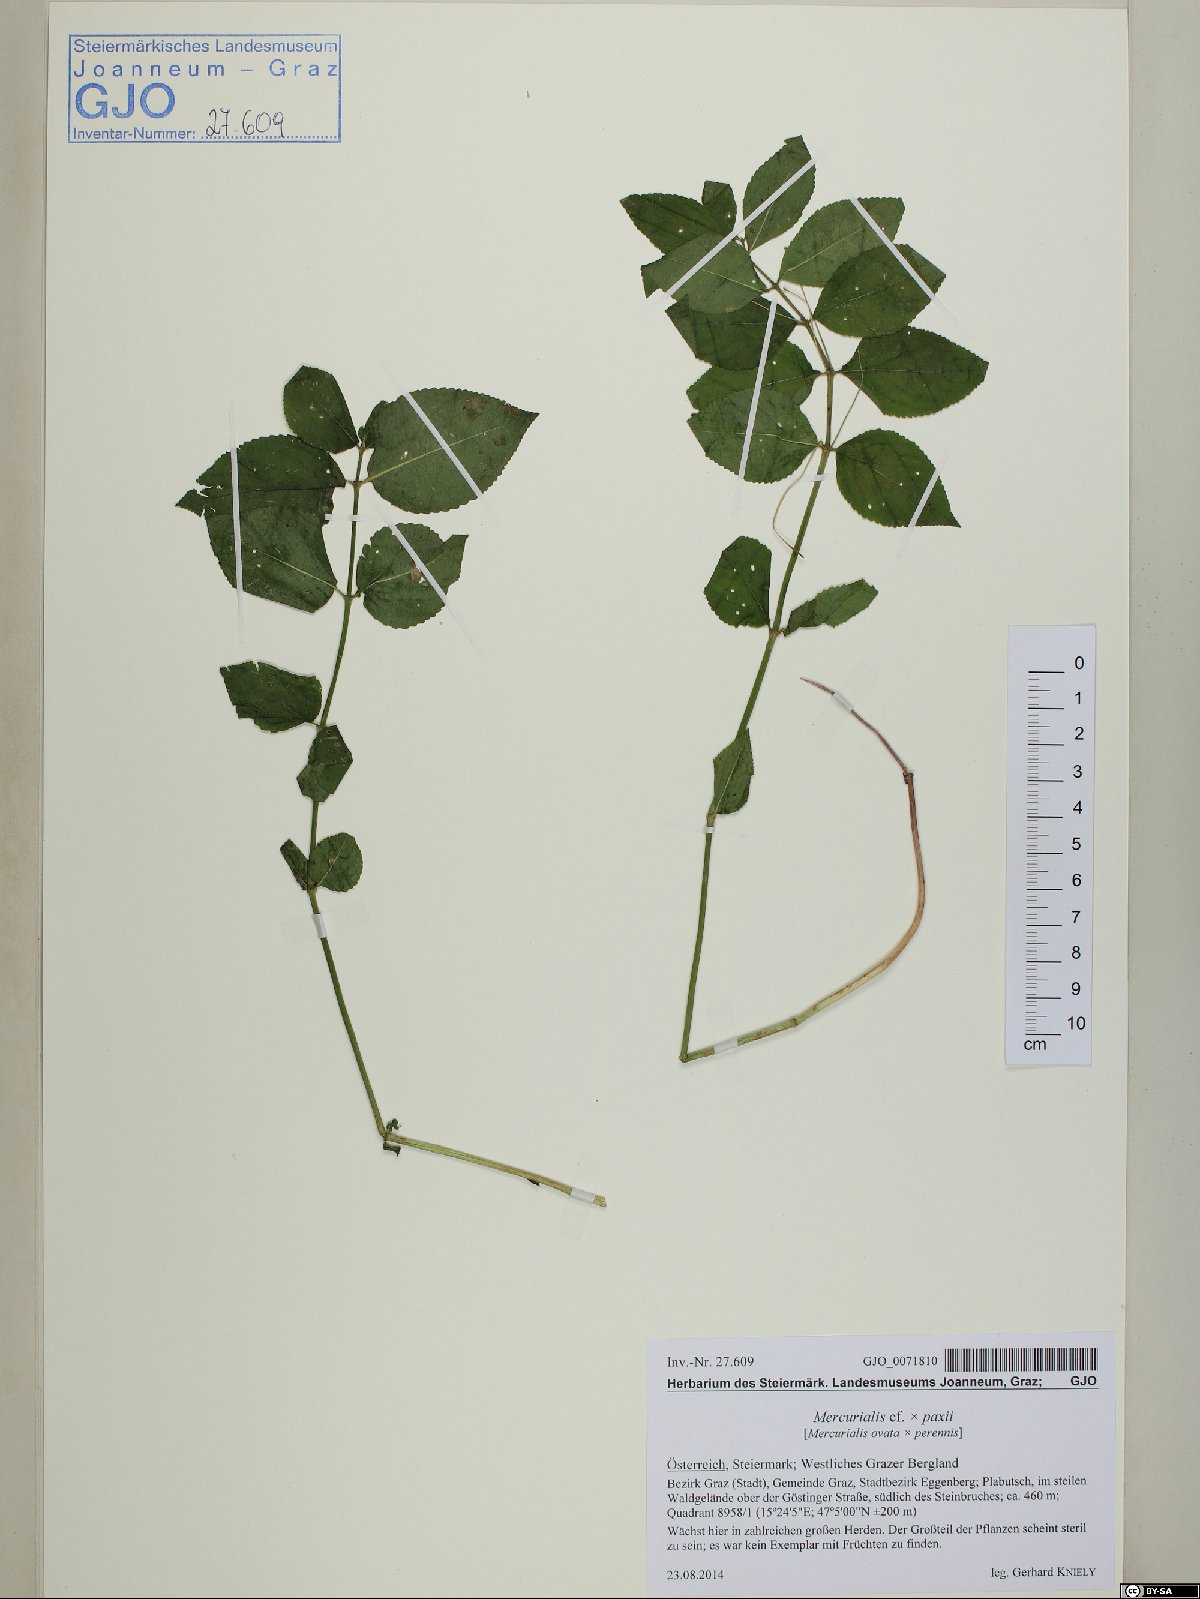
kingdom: Plantae
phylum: Tracheophyta
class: Magnoliopsida
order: Malpighiales
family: Euphorbiaceae
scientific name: Euphorbiaceae
